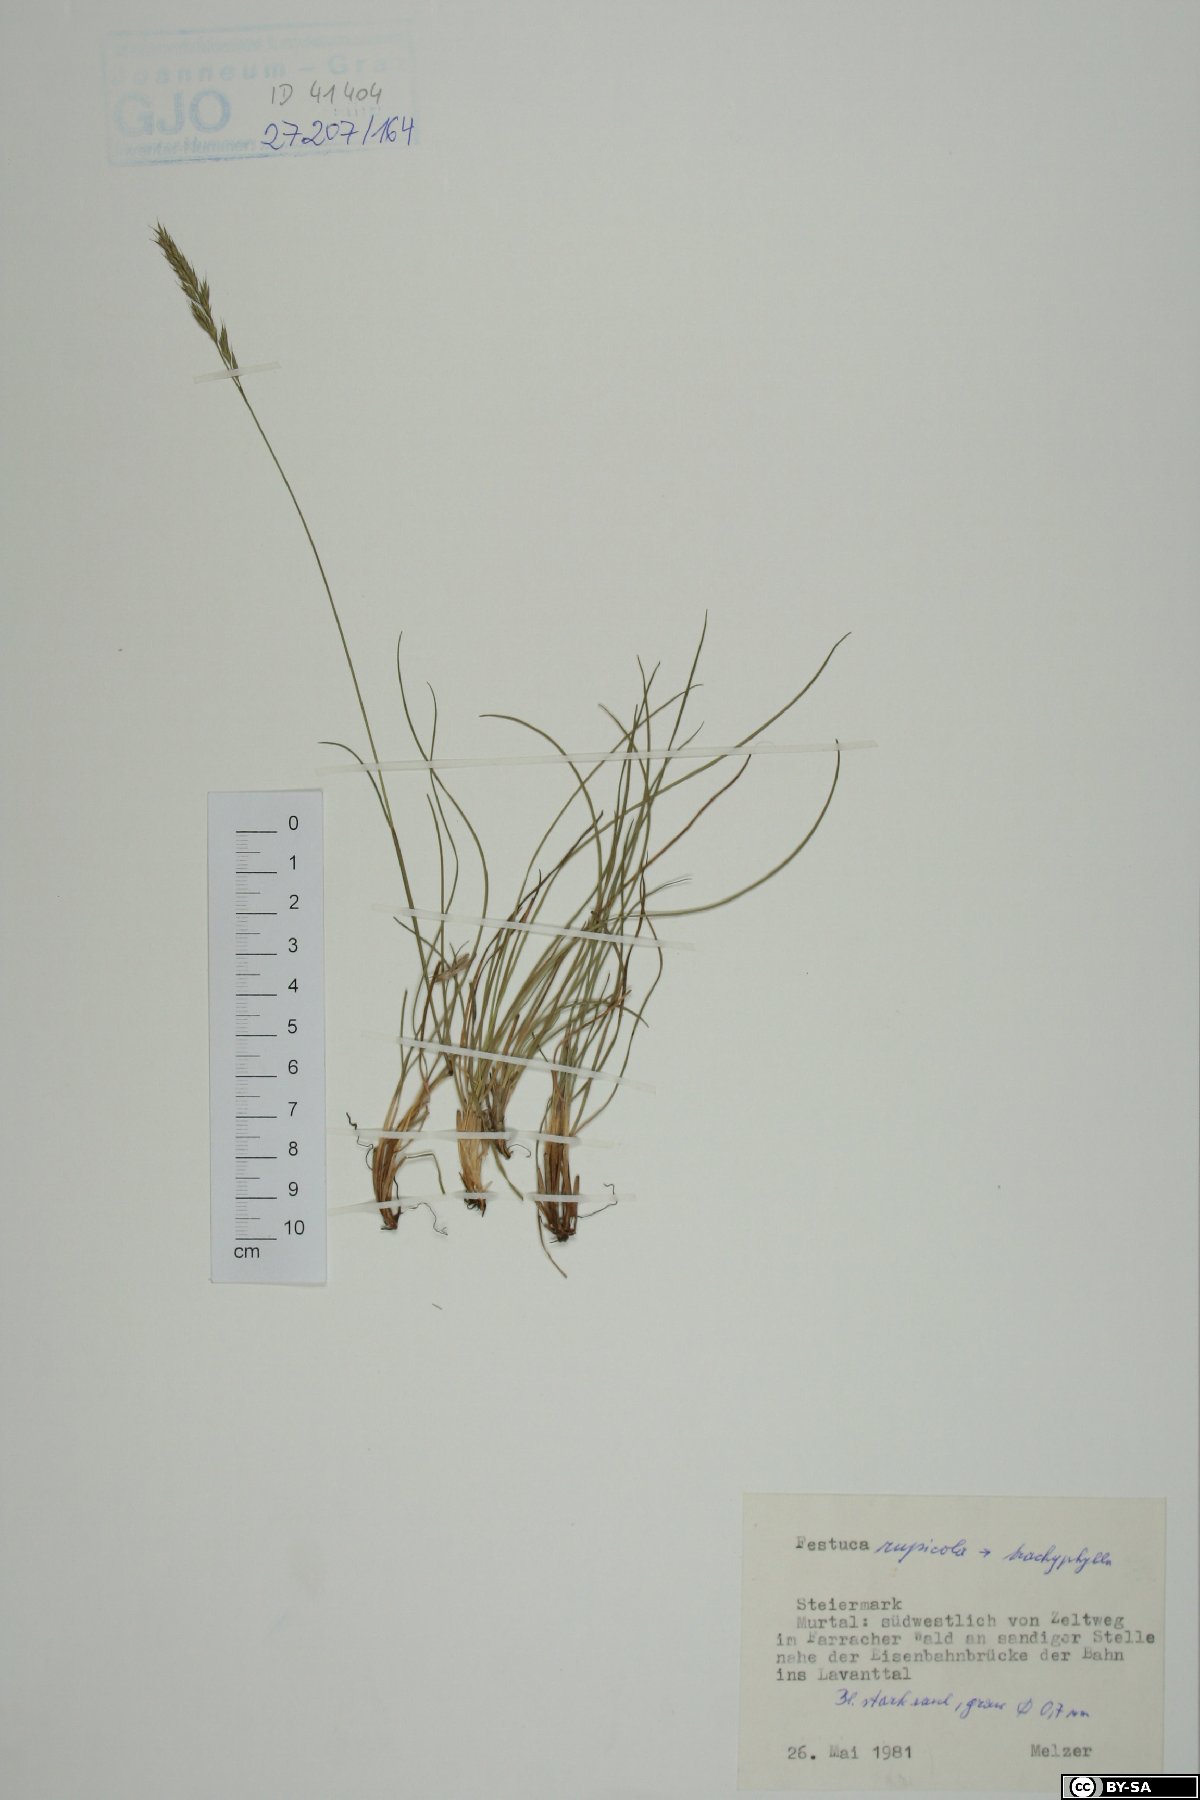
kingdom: Plantae
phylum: Tracheophyta
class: Liliopsida
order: Poales
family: Poaceae
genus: Festuca
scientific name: Festuca
